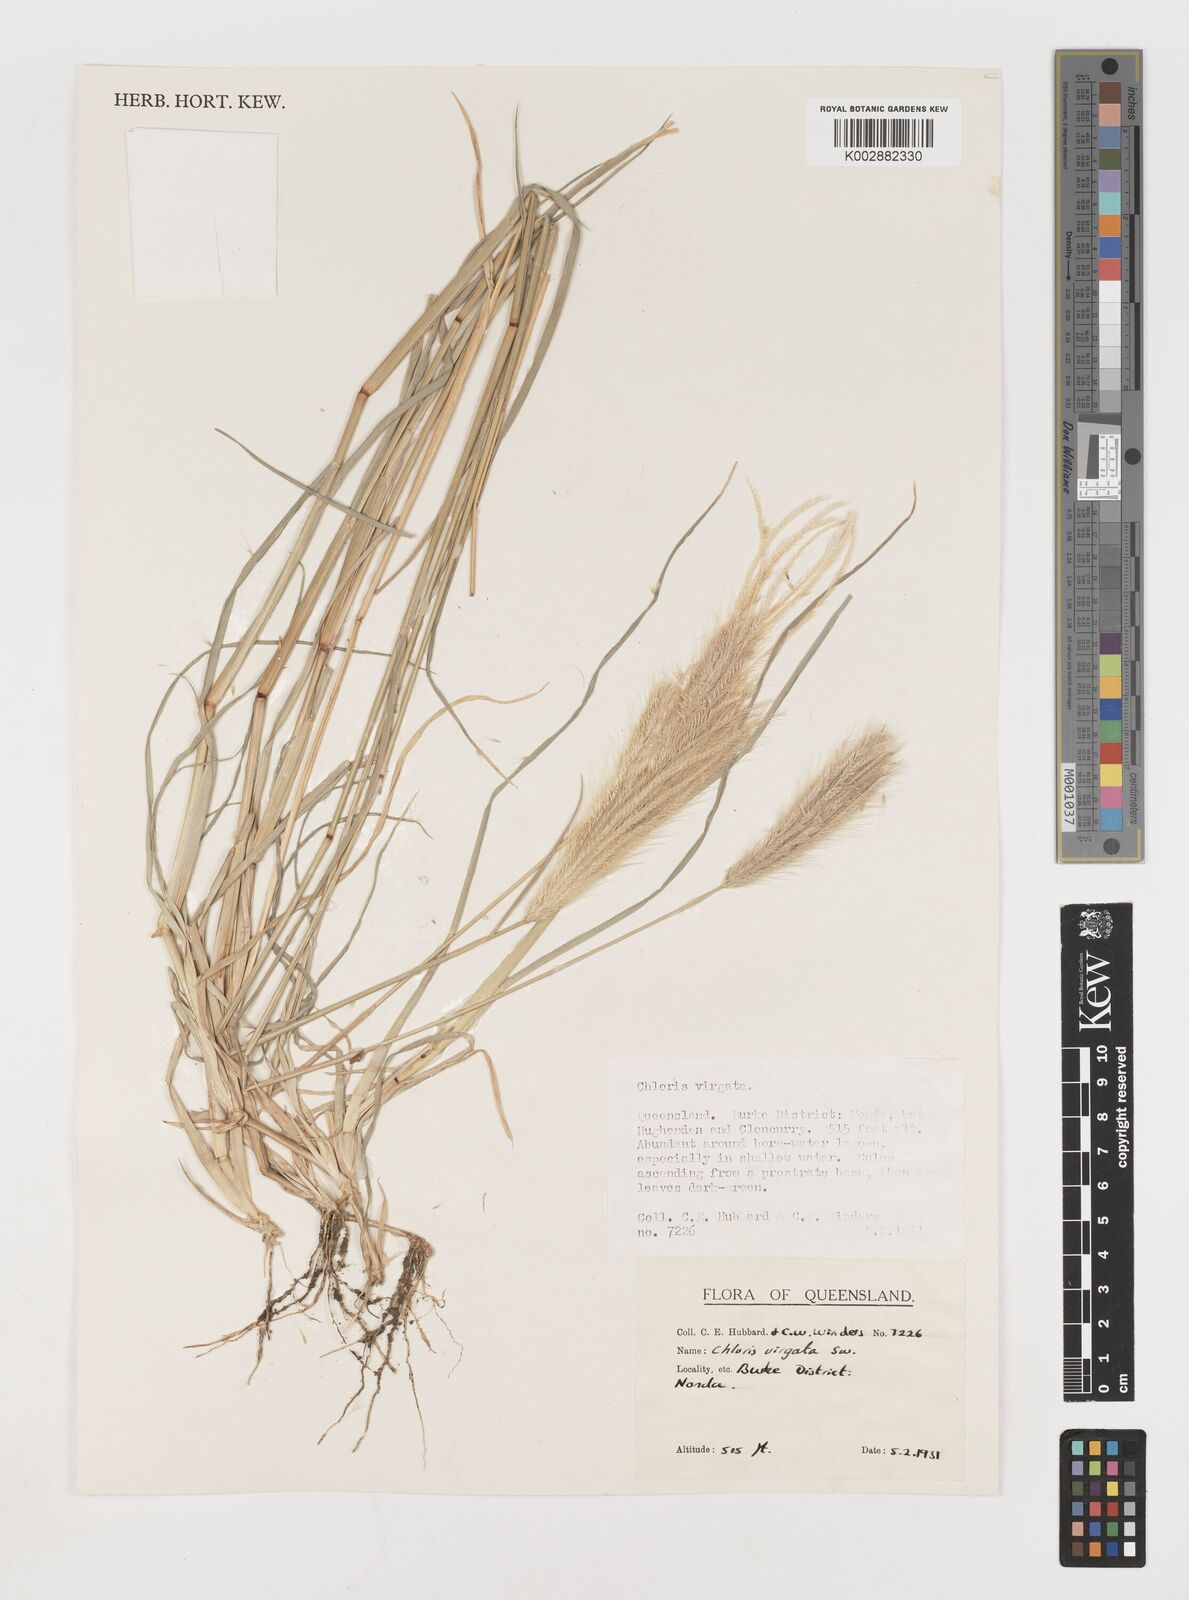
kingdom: Plantae
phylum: Tracheophyta
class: Liliopsida
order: Poales
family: Poaceae
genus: Chloris
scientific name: Chloris virgata
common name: Feathery rhodes-grass
